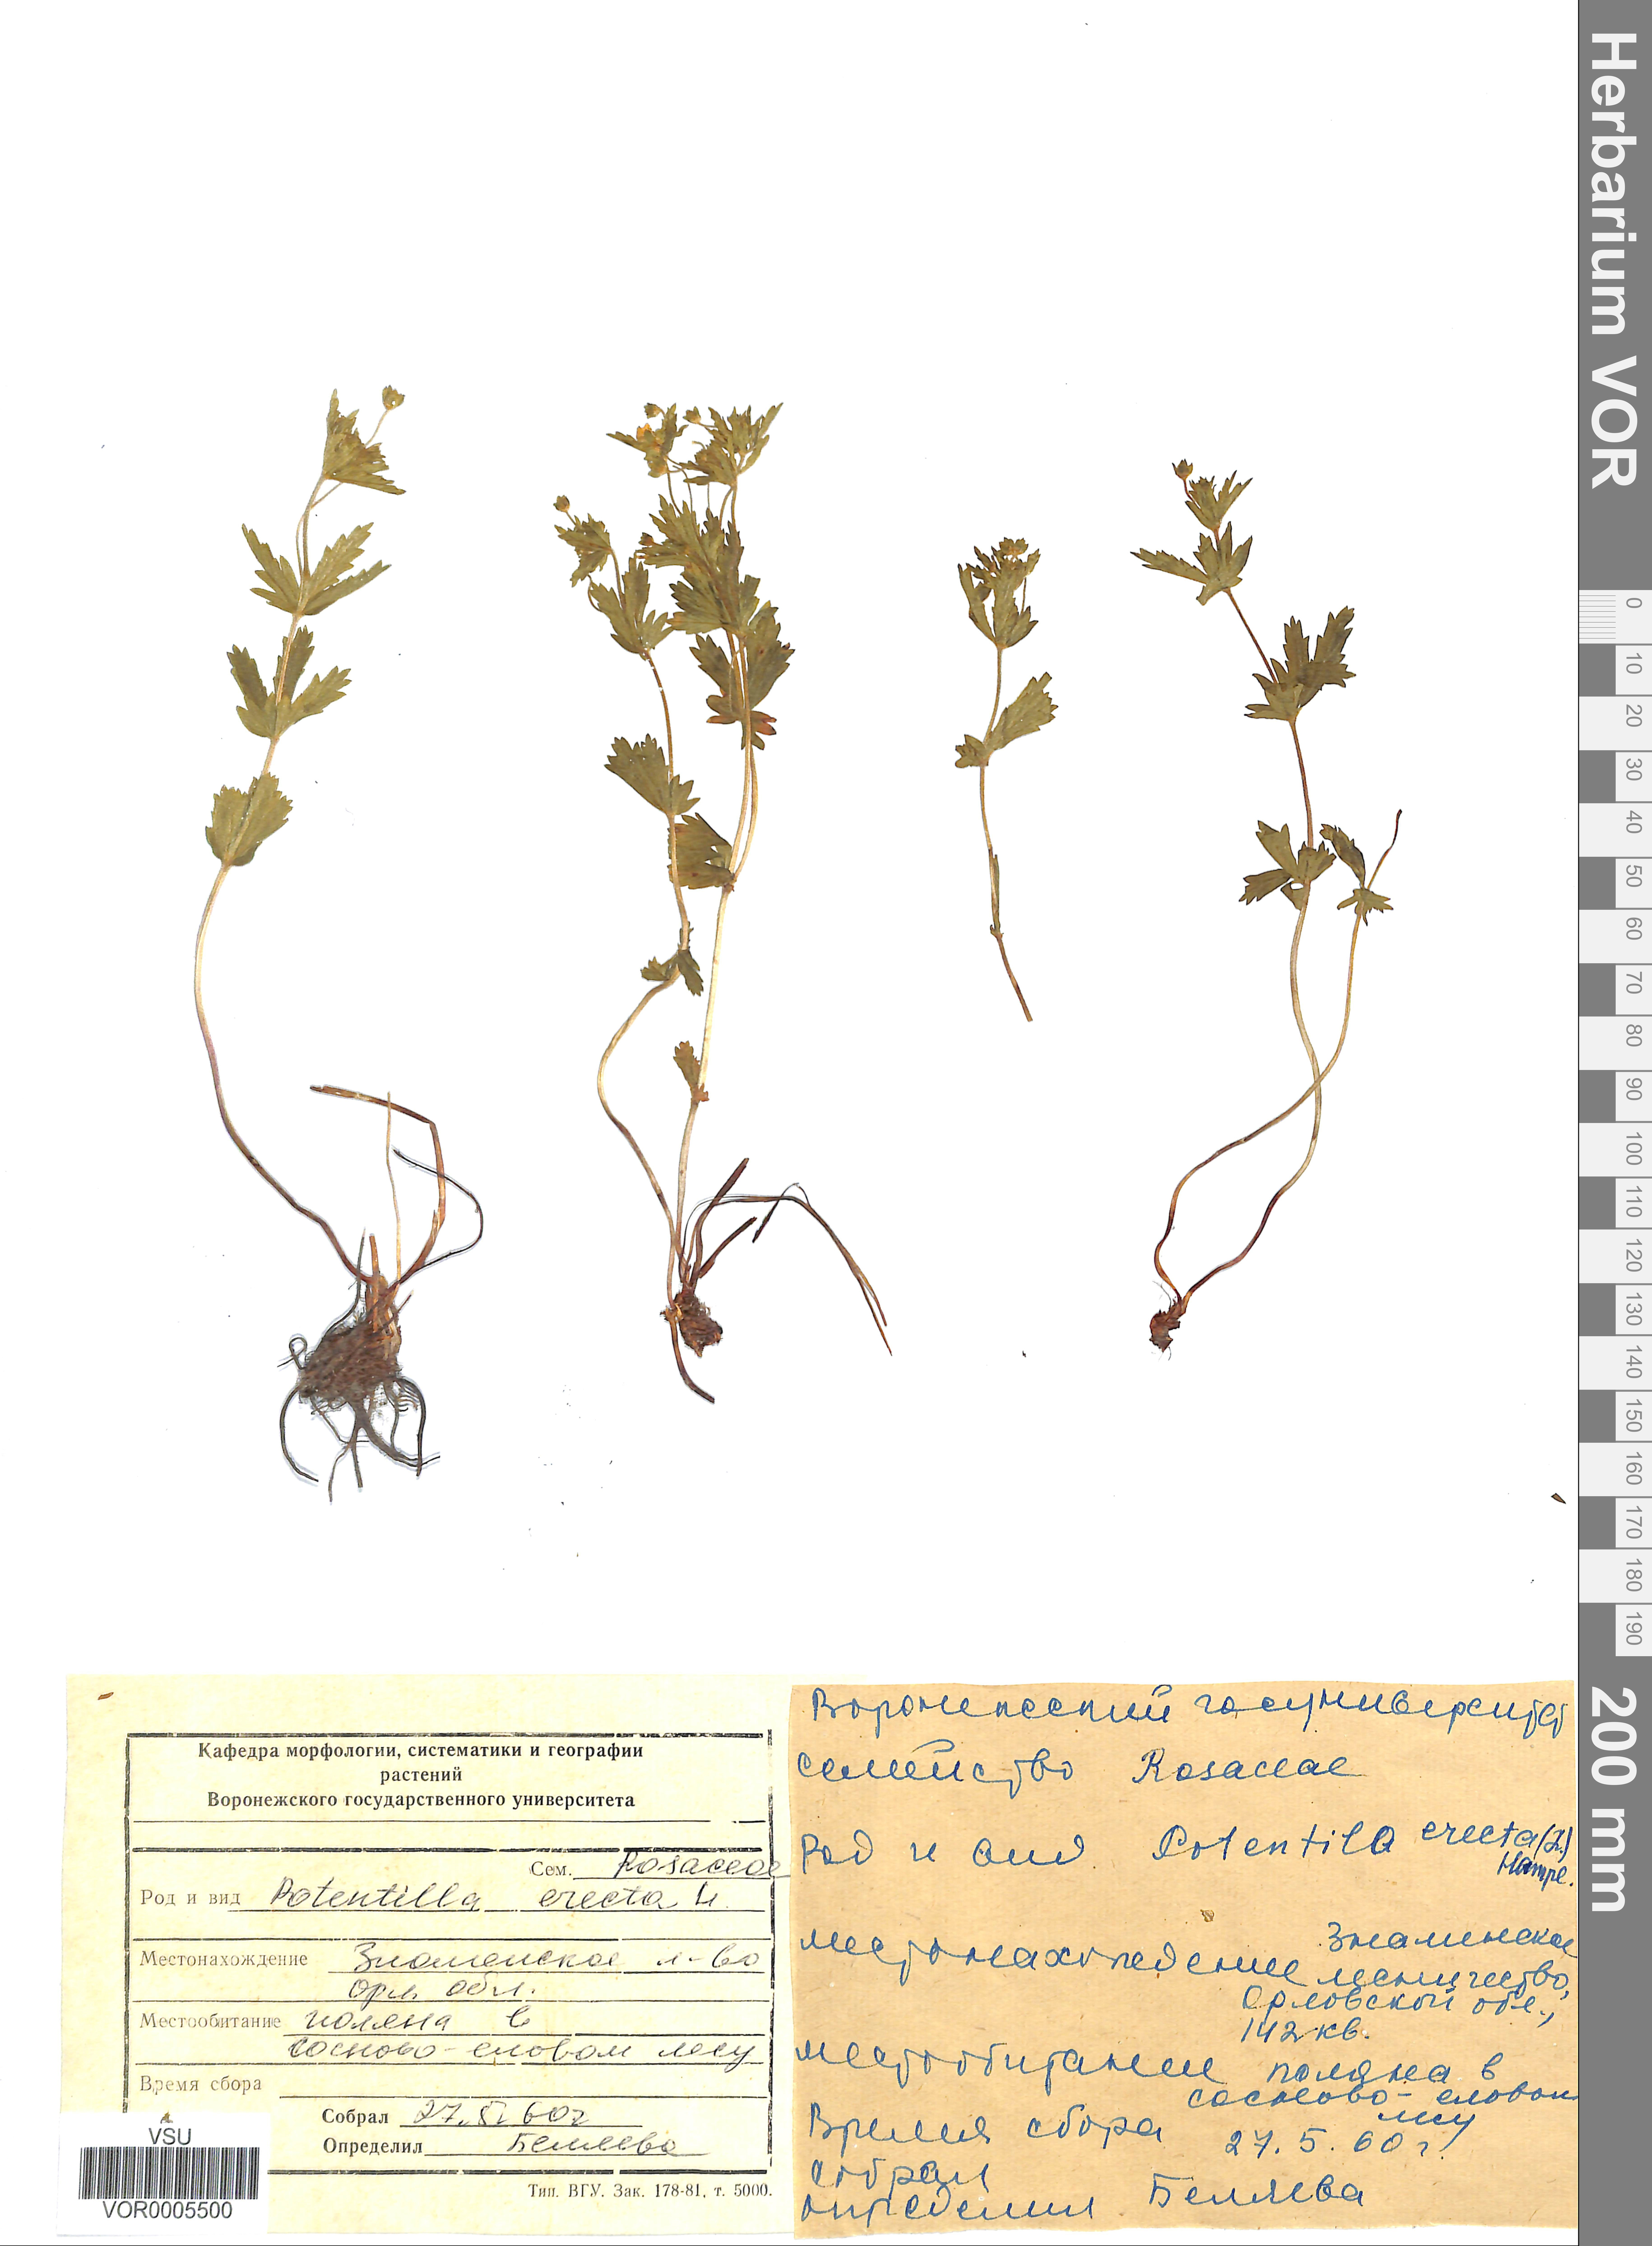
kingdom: Plantae
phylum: Tracheophyta
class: Magnoliopsida
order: Rosales
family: Rosaceae
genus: Potentilla
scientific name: Potentilla erecta
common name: Tormentil
